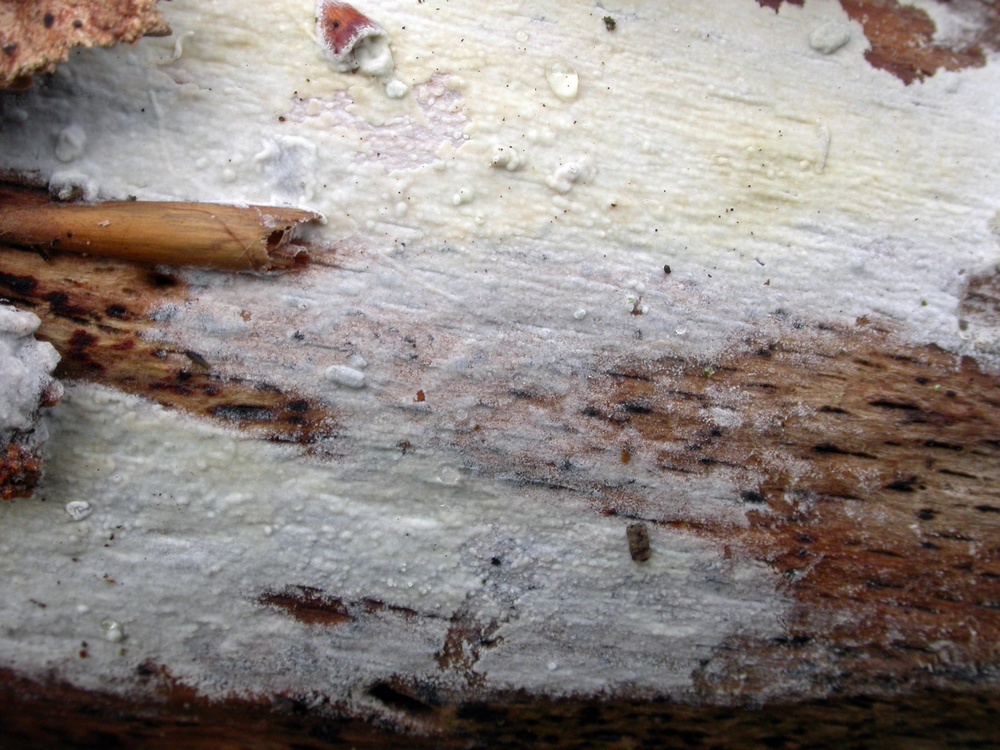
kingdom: Fungi
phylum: Basidiomycota
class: Agaricomycetes
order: Polyporales
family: Hyphodermataceae
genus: Hyphoderma
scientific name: Hyphoderma roseocremeum
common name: lillaplettet kalkskind
